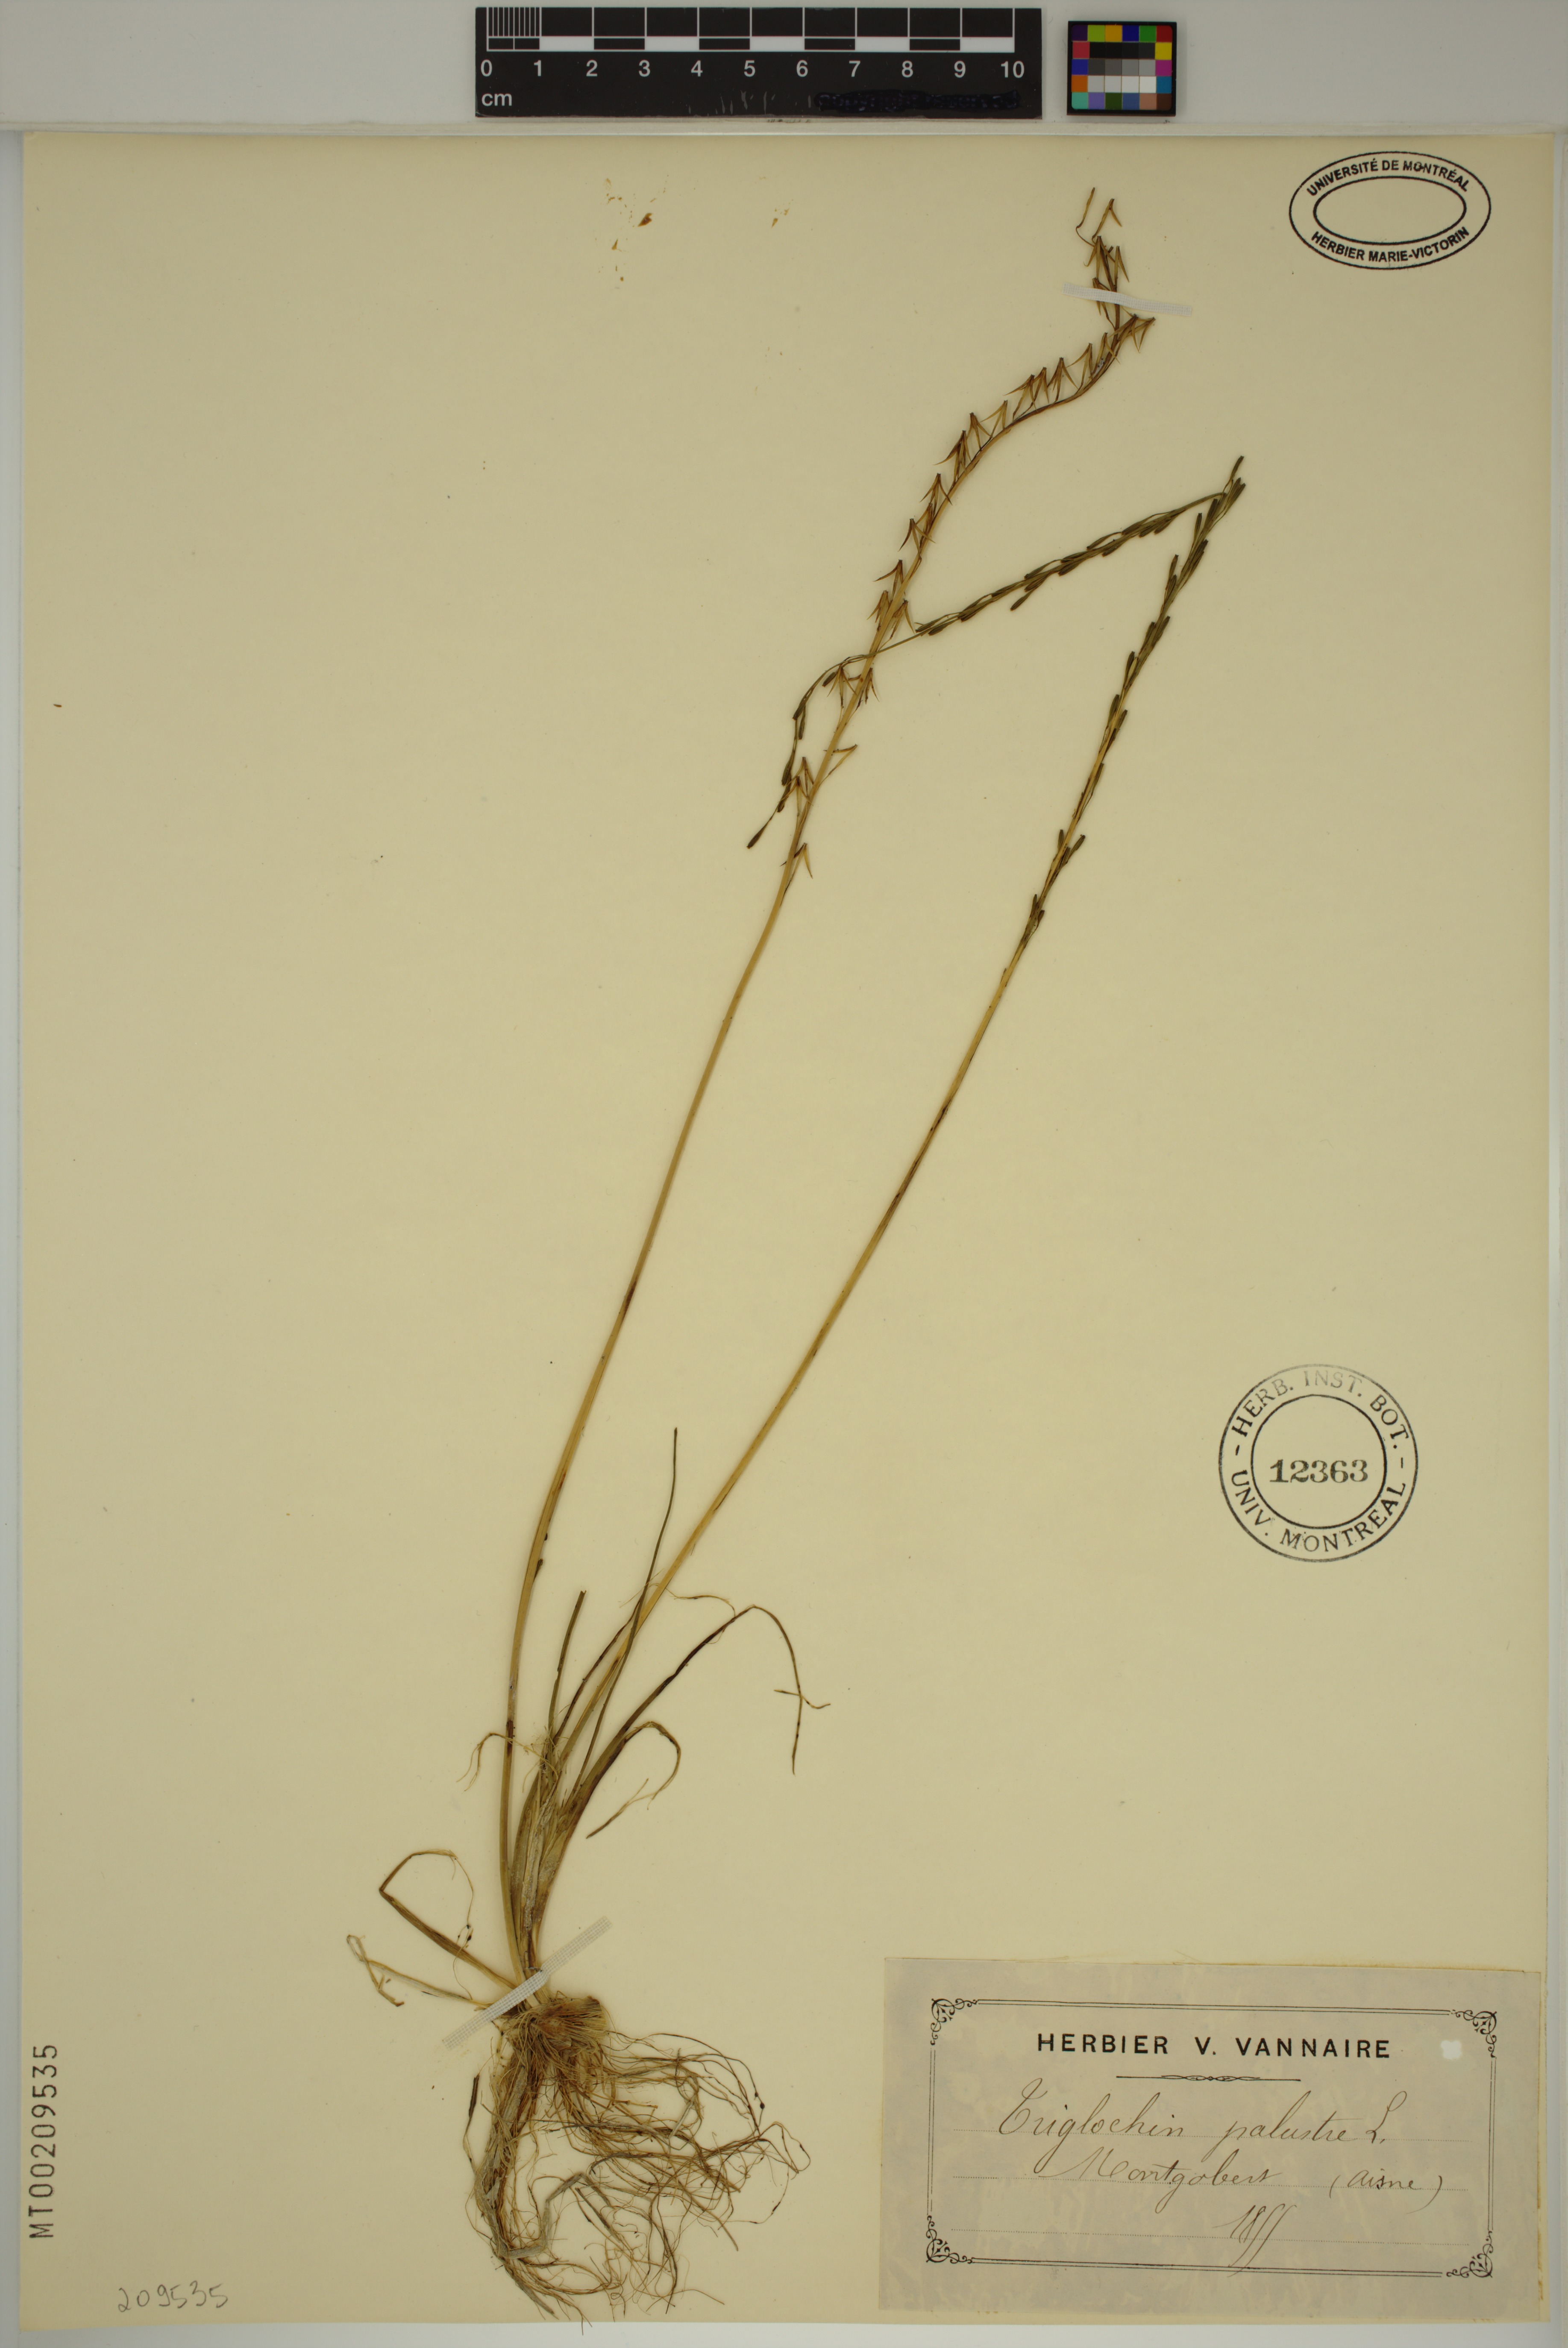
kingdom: Plantae
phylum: Tracheophyta
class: Liliopsida
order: Alismatales
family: Juncaginaceae
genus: Triglochin
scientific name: Triglochin palustris
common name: Marsh arrowgrass
